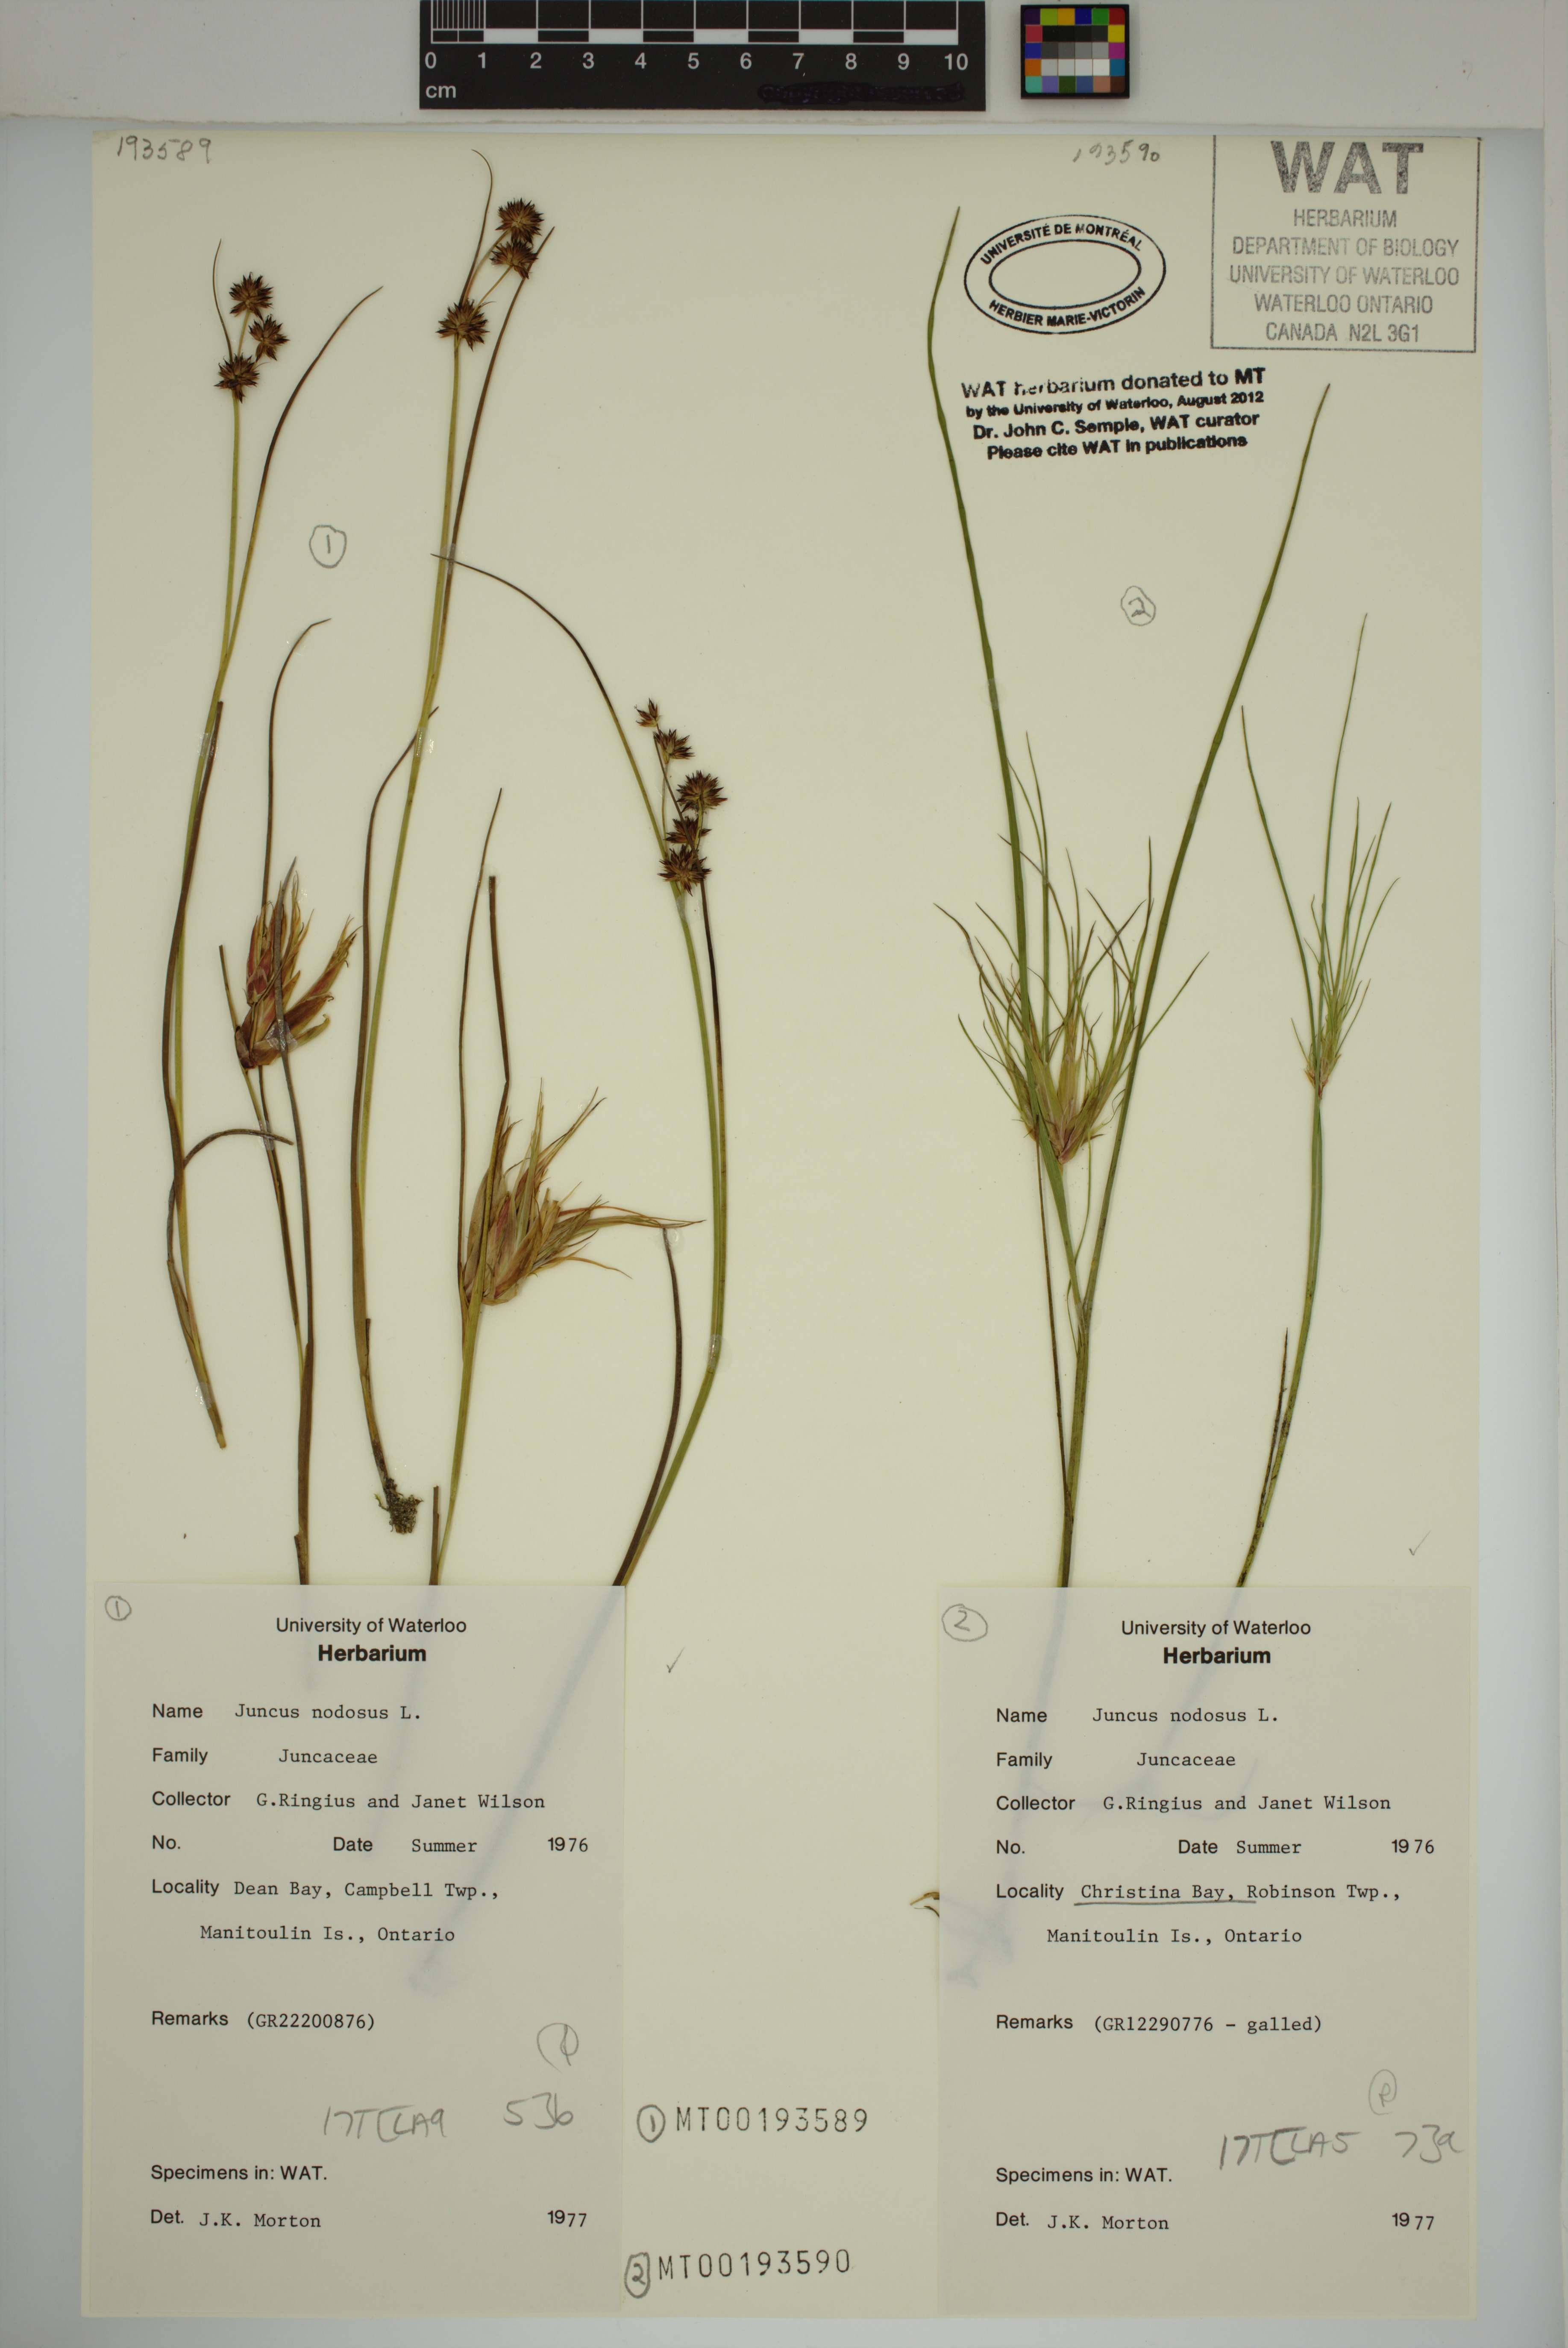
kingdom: Plantae
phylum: Tracheophyta
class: Liliopsida
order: Poales
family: Juncaceae
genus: Juncus
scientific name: Juncus nodosus
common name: Knotted rush
